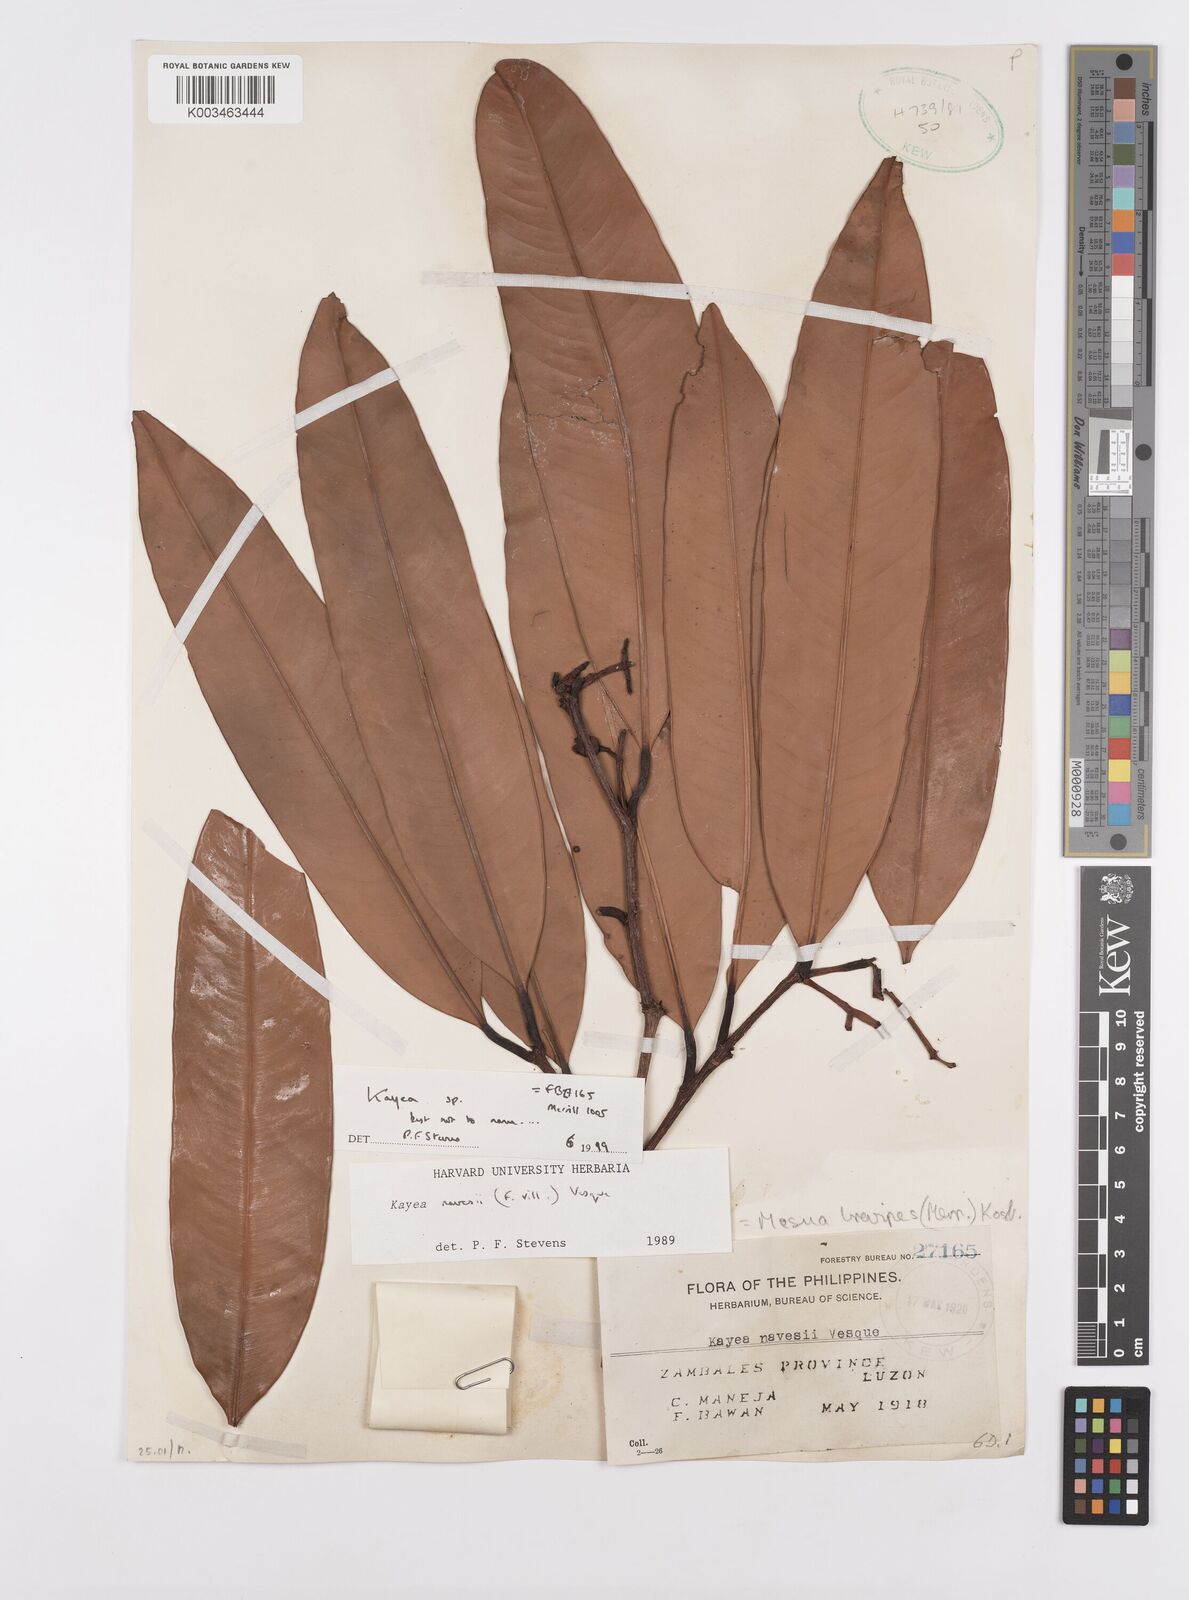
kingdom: Plantae
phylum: Tracheophyta
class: Magnoliopsida
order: Malpighiales
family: Calophyllaceae
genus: Kayea
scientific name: Kayea
